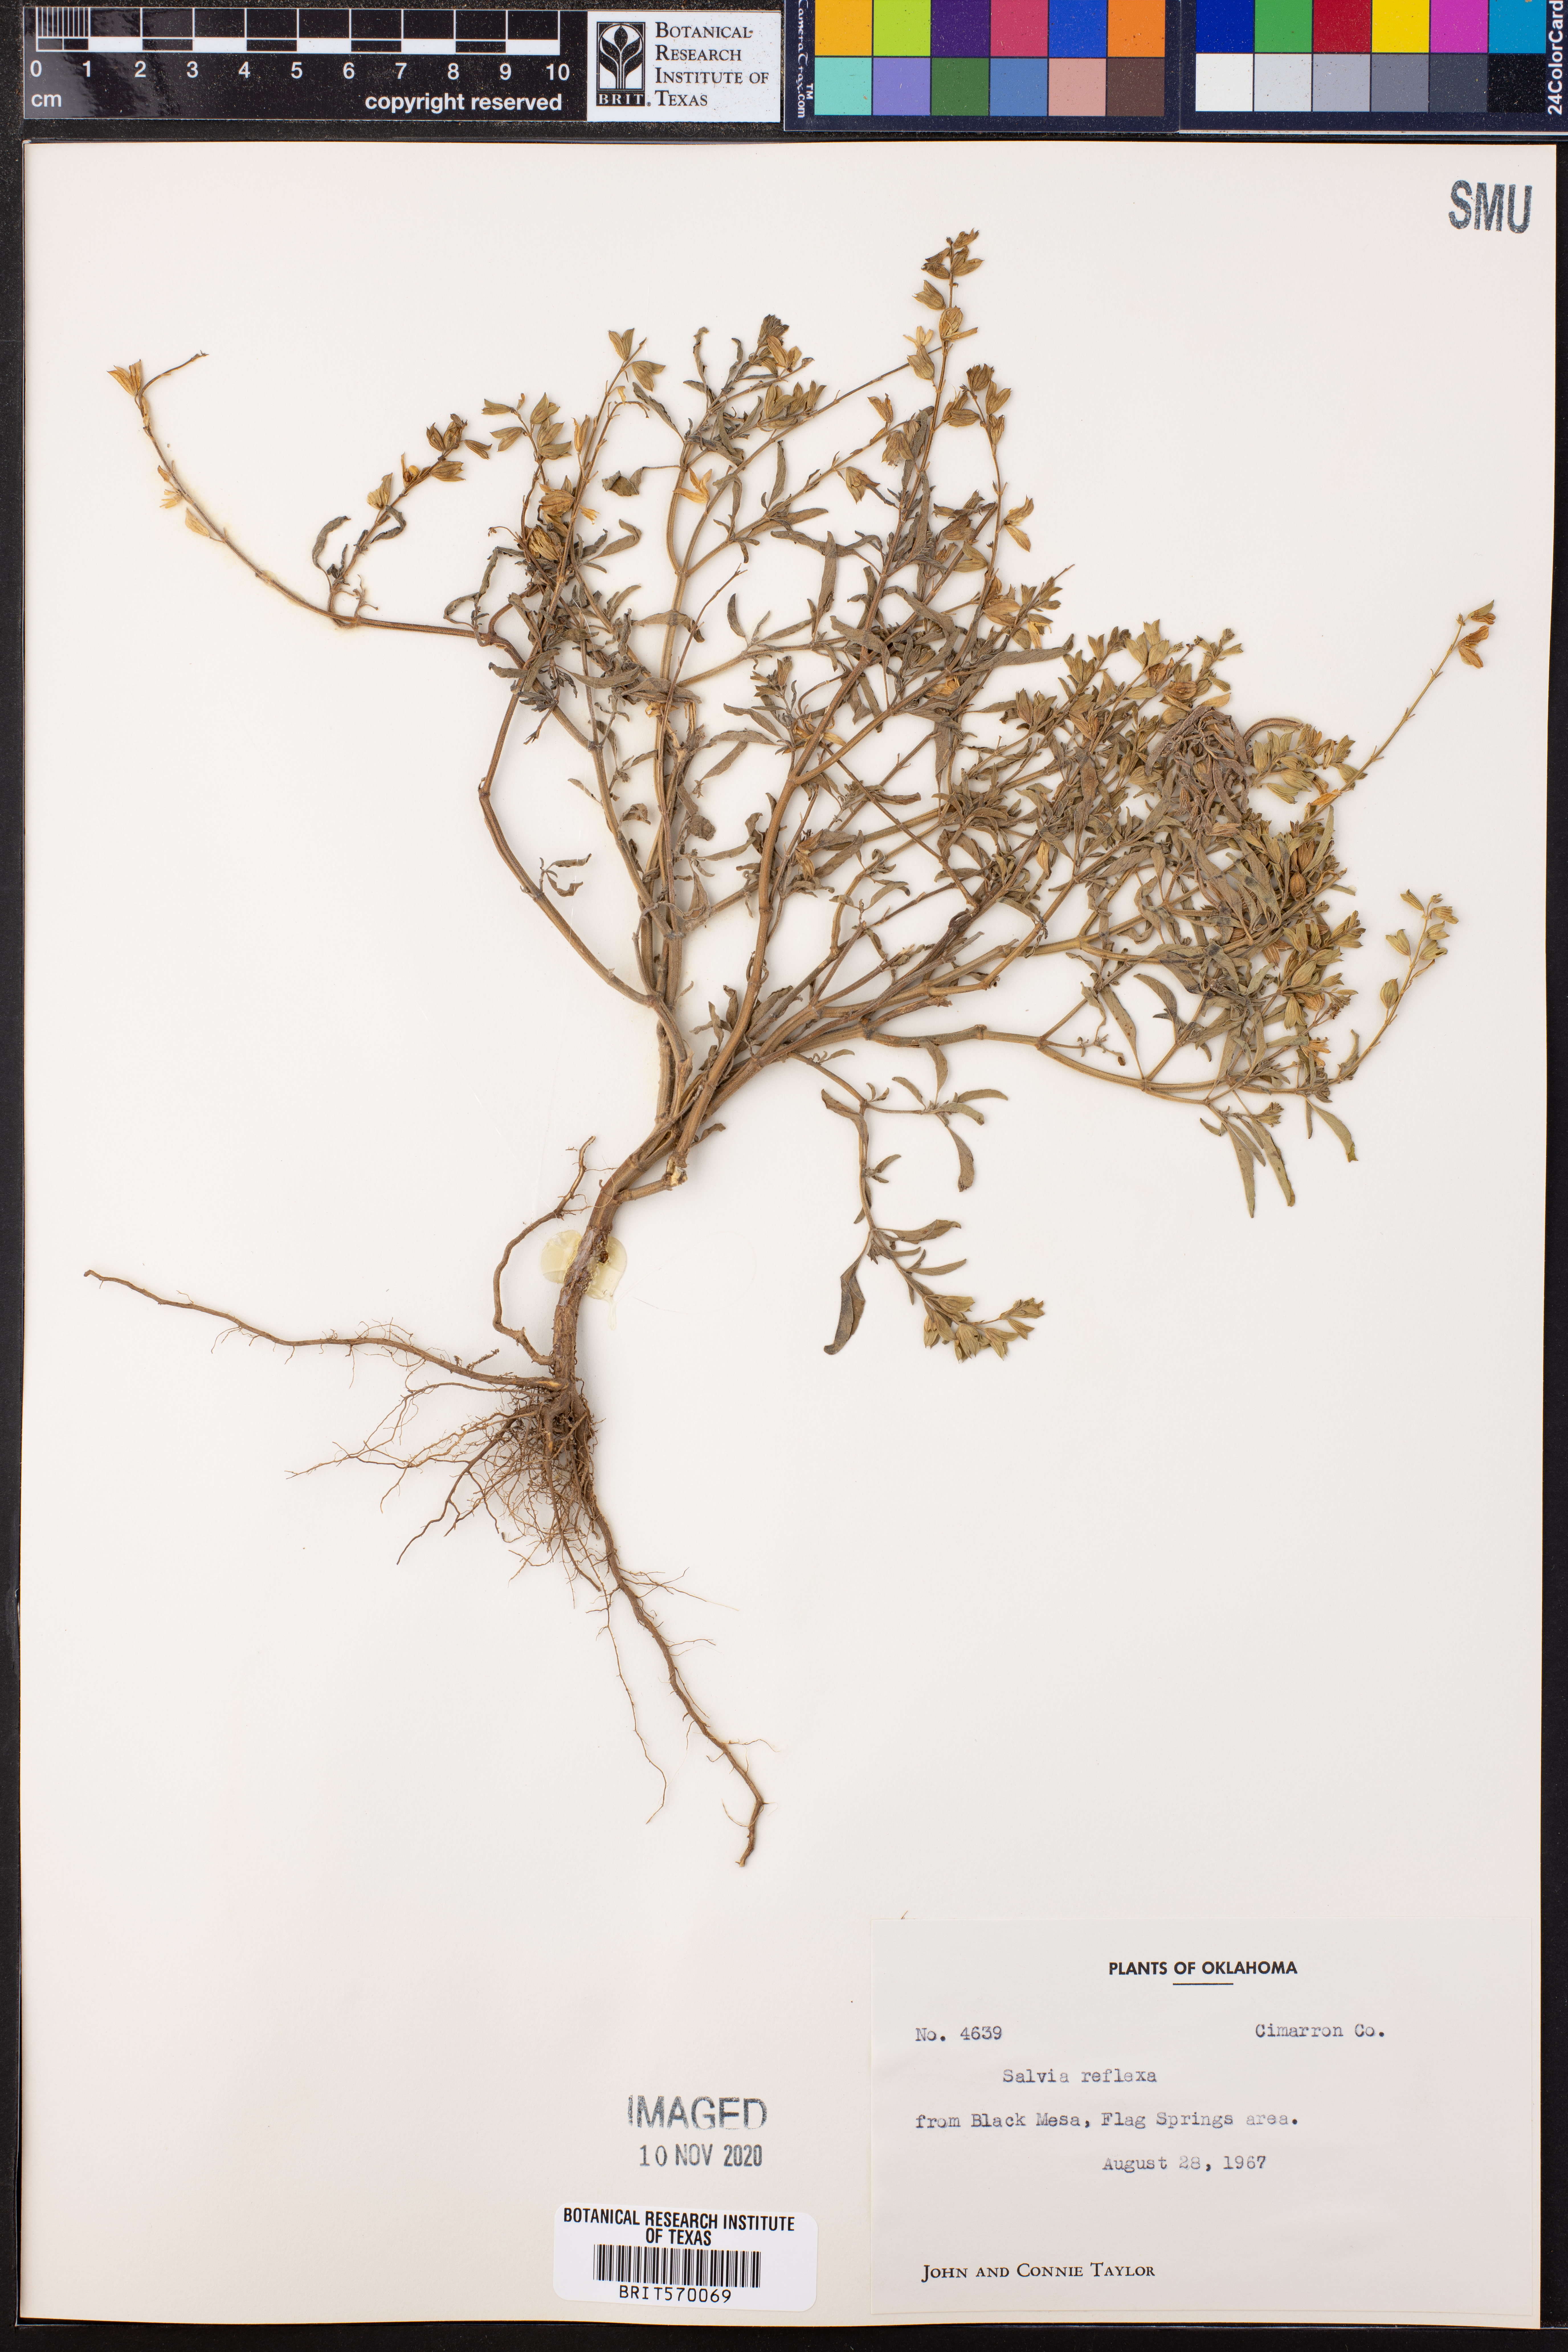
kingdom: Plantae
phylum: Tracheophyta
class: Magnoliopsida
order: Lamiales
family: Lamiaceae
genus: Salvia
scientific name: Salvia reflexa
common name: Mintweed
